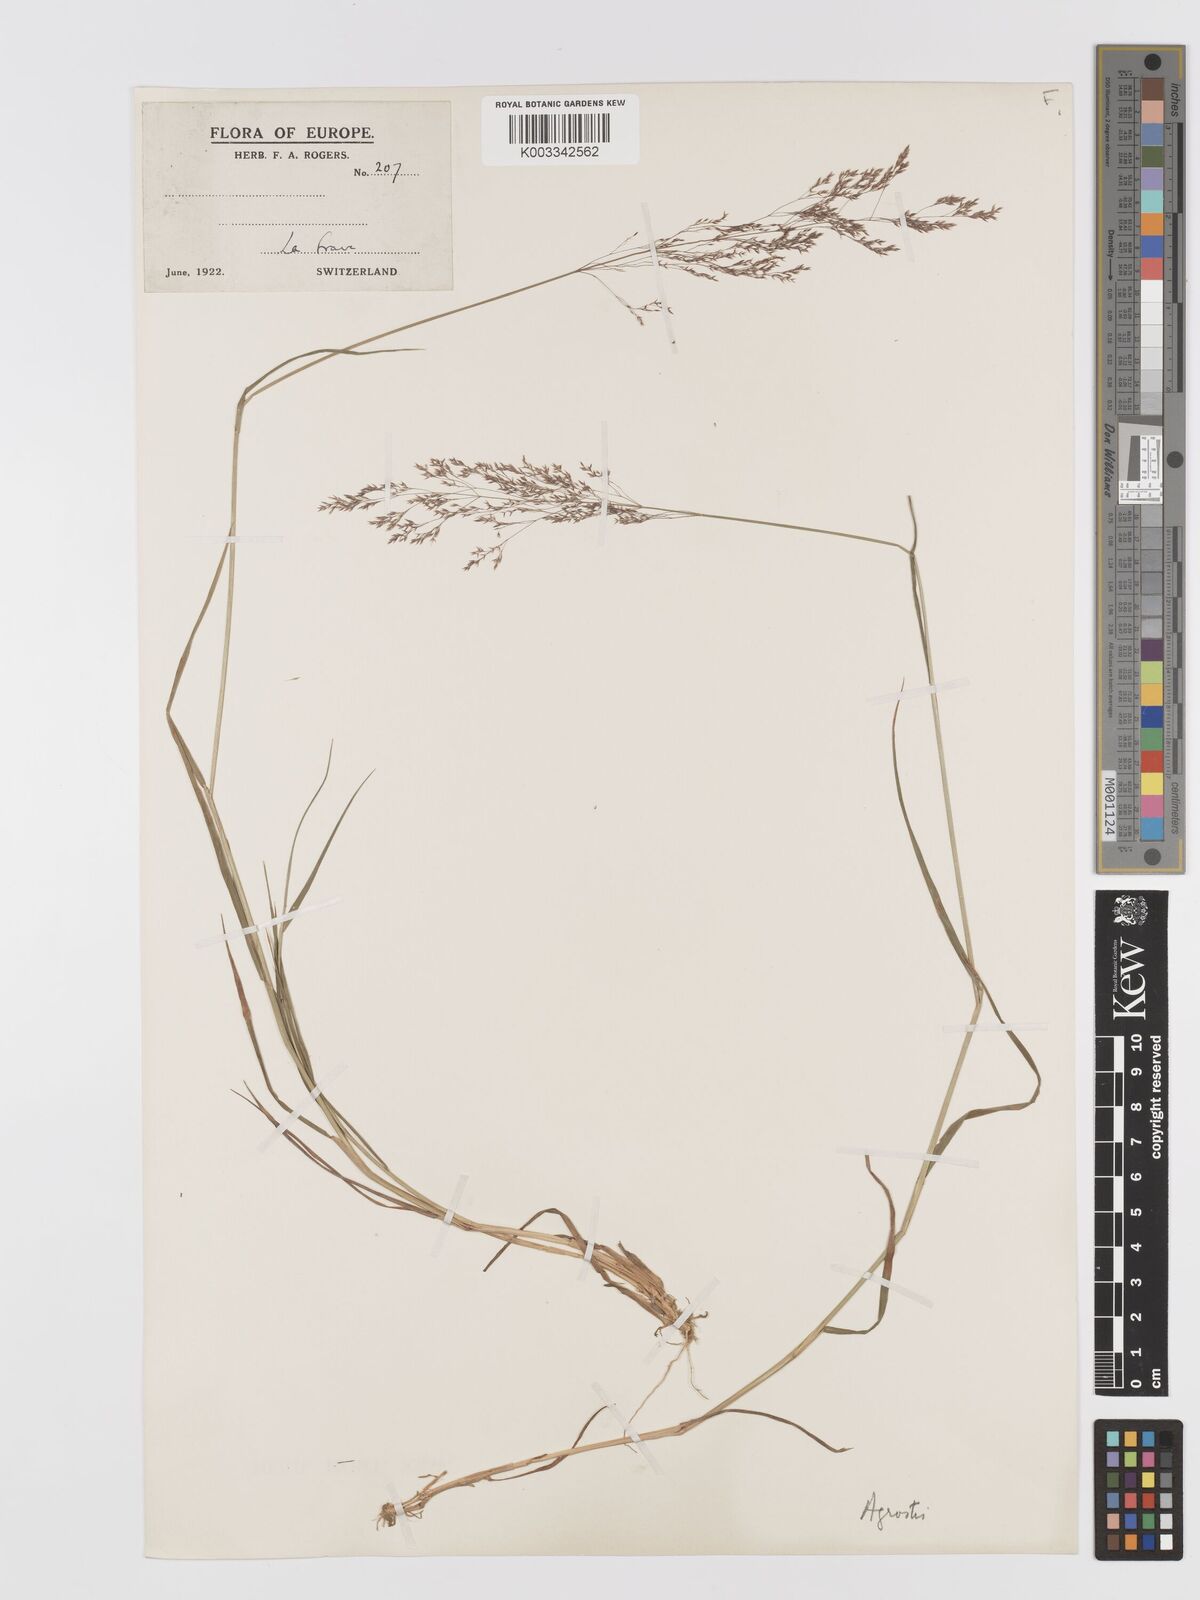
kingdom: Plantae
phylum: Tracheophyta
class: Liliopsida
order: Poales
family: Poaceae
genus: Agrostis
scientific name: Agrostis
